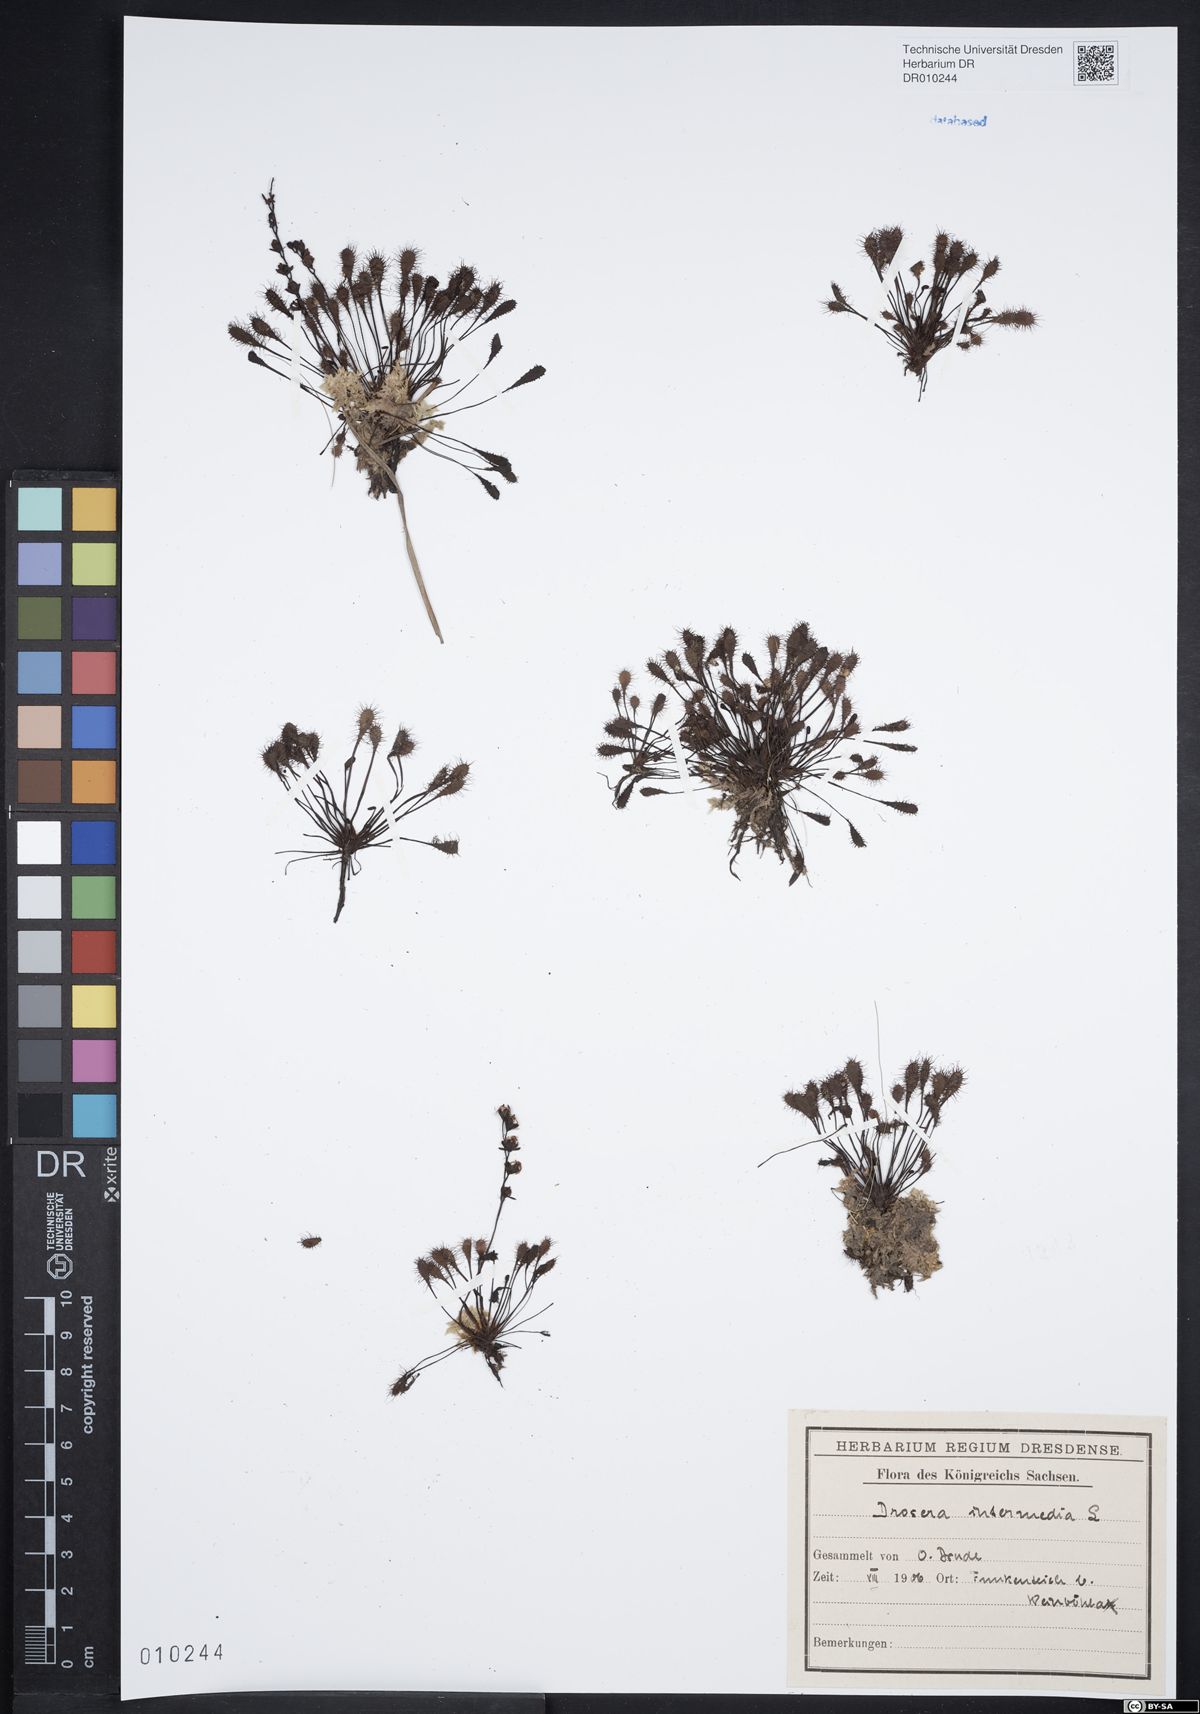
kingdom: Plantae
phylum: Tracheophyta
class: Magnoliopsida
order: Caryophyllales
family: Droseraceae
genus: Drosera
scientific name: Drosera intermedia
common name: Oblong-leaved sundew
